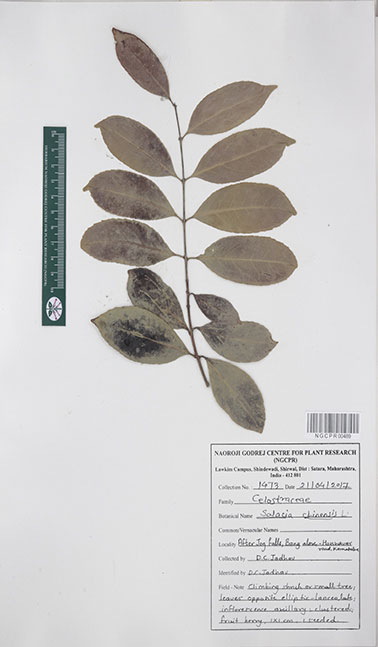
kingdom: Plantae
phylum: Tracheophyta
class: Magnoliopsida
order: Celastrales
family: Celastraceae
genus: Salacia
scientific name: Salacia chinensis
